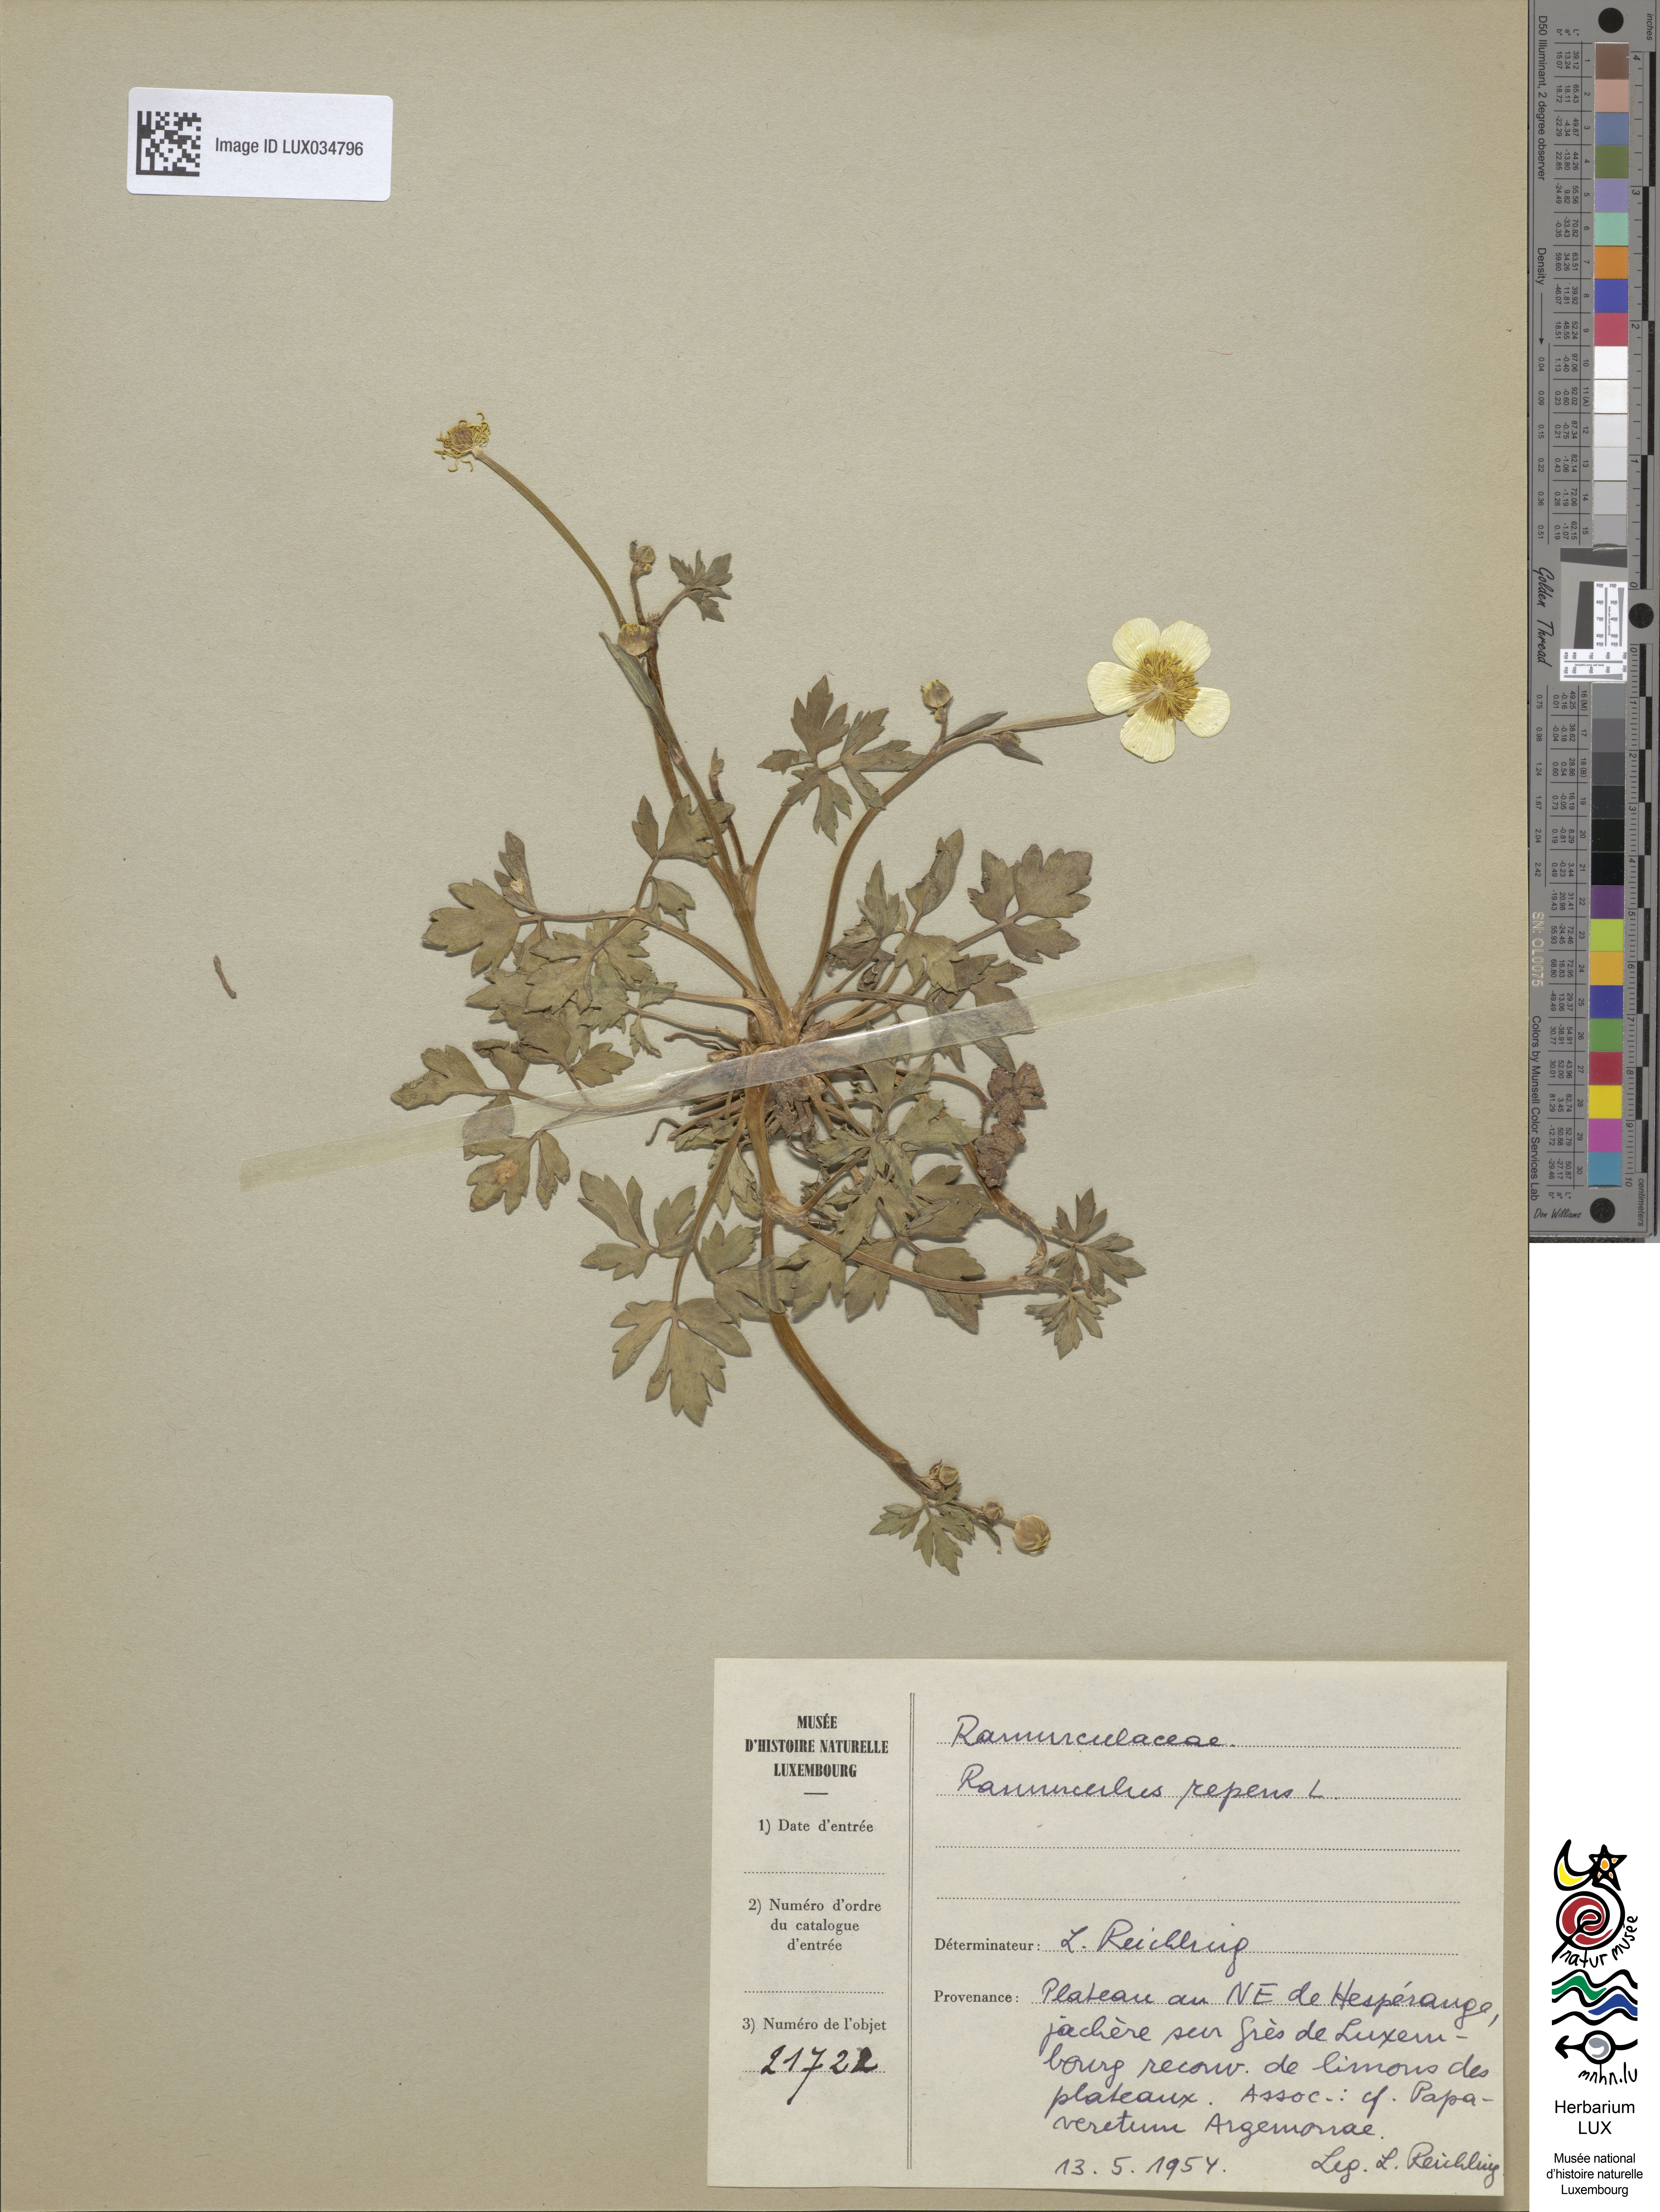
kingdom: Plantae
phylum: Tracheophyta
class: Magnoliopsida
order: Ranunculales
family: Ranunculaceae
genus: Ranunculus
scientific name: Ranunculus repens
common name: Creeping buttercup
